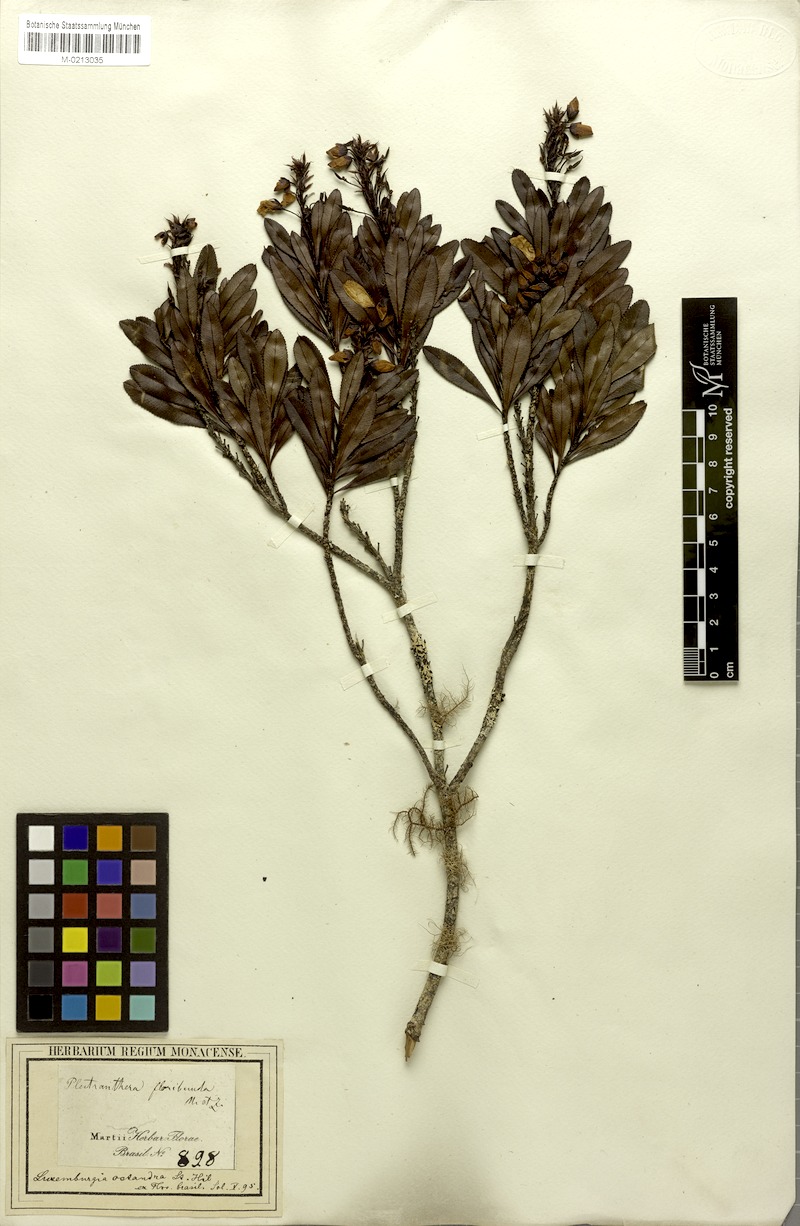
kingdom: Plantae
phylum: Tracheophyta
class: Magnoliopsida
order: Malpighiales
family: Ochnaceae
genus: Luxemburgia
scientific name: Luxemburgia octandra
